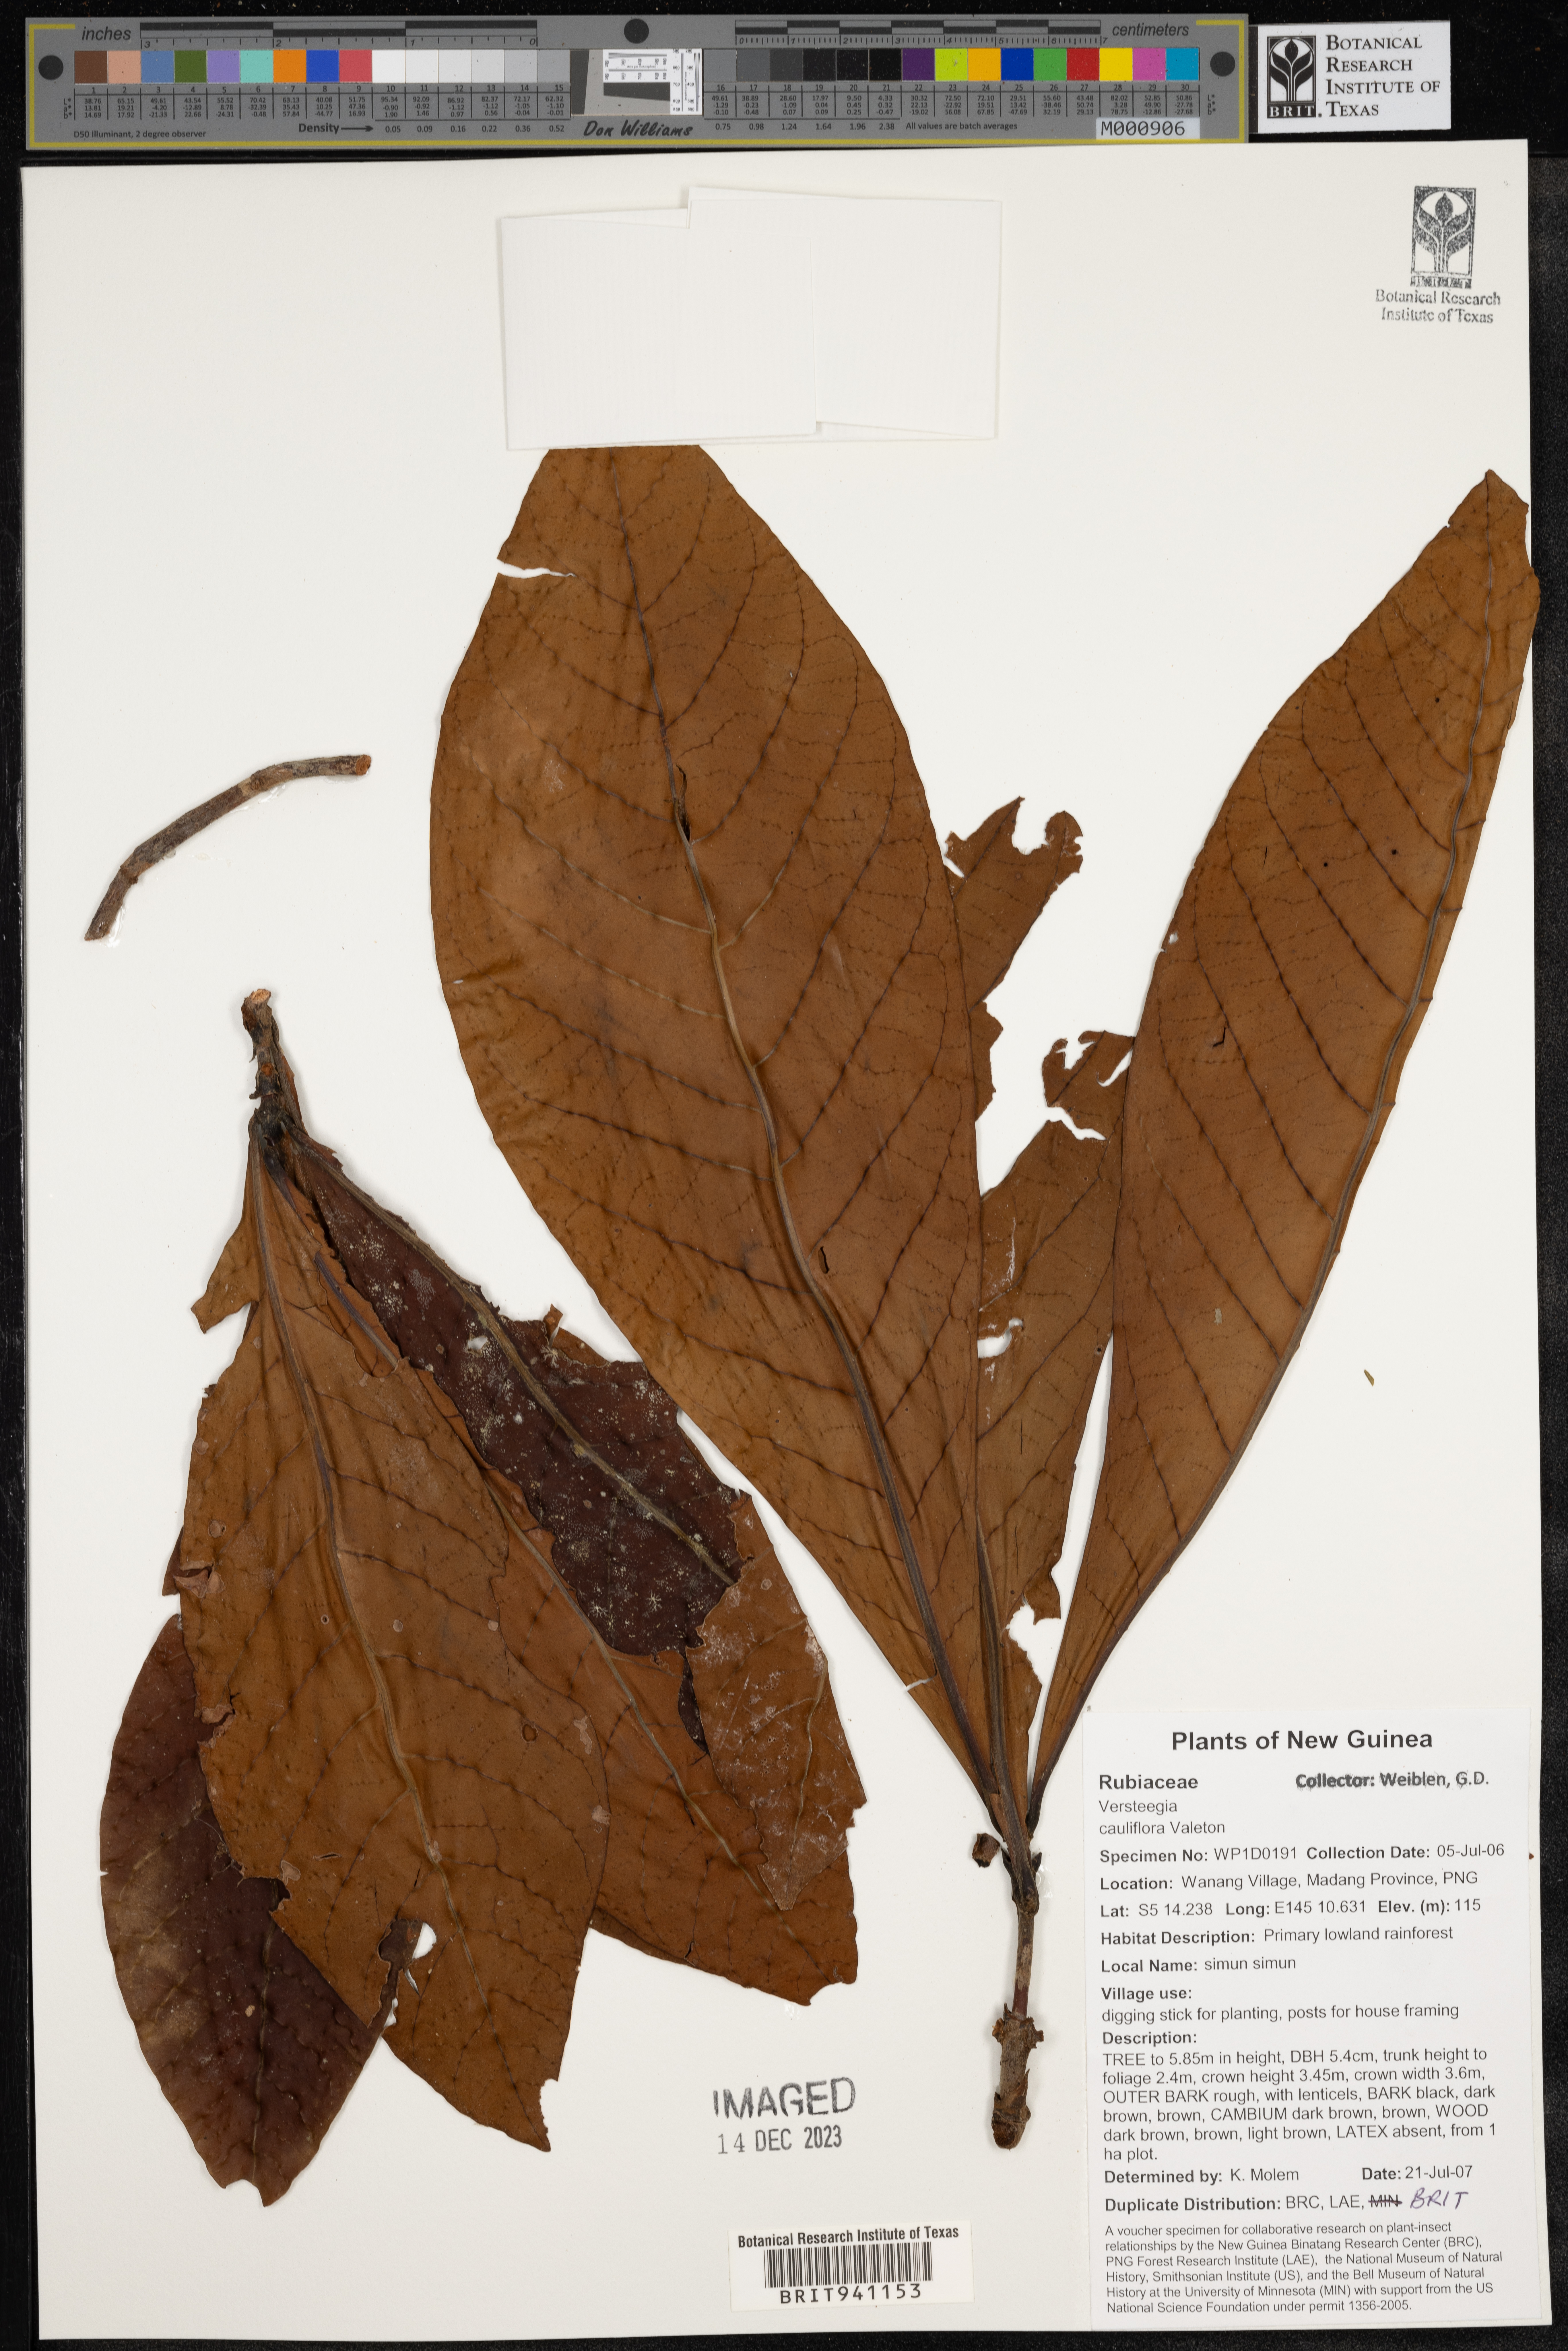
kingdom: Plantae
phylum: Tracheophyta
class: Magnoliopsida
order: Gentianales
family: Rubiaceae
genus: Ixora
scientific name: Ixora
